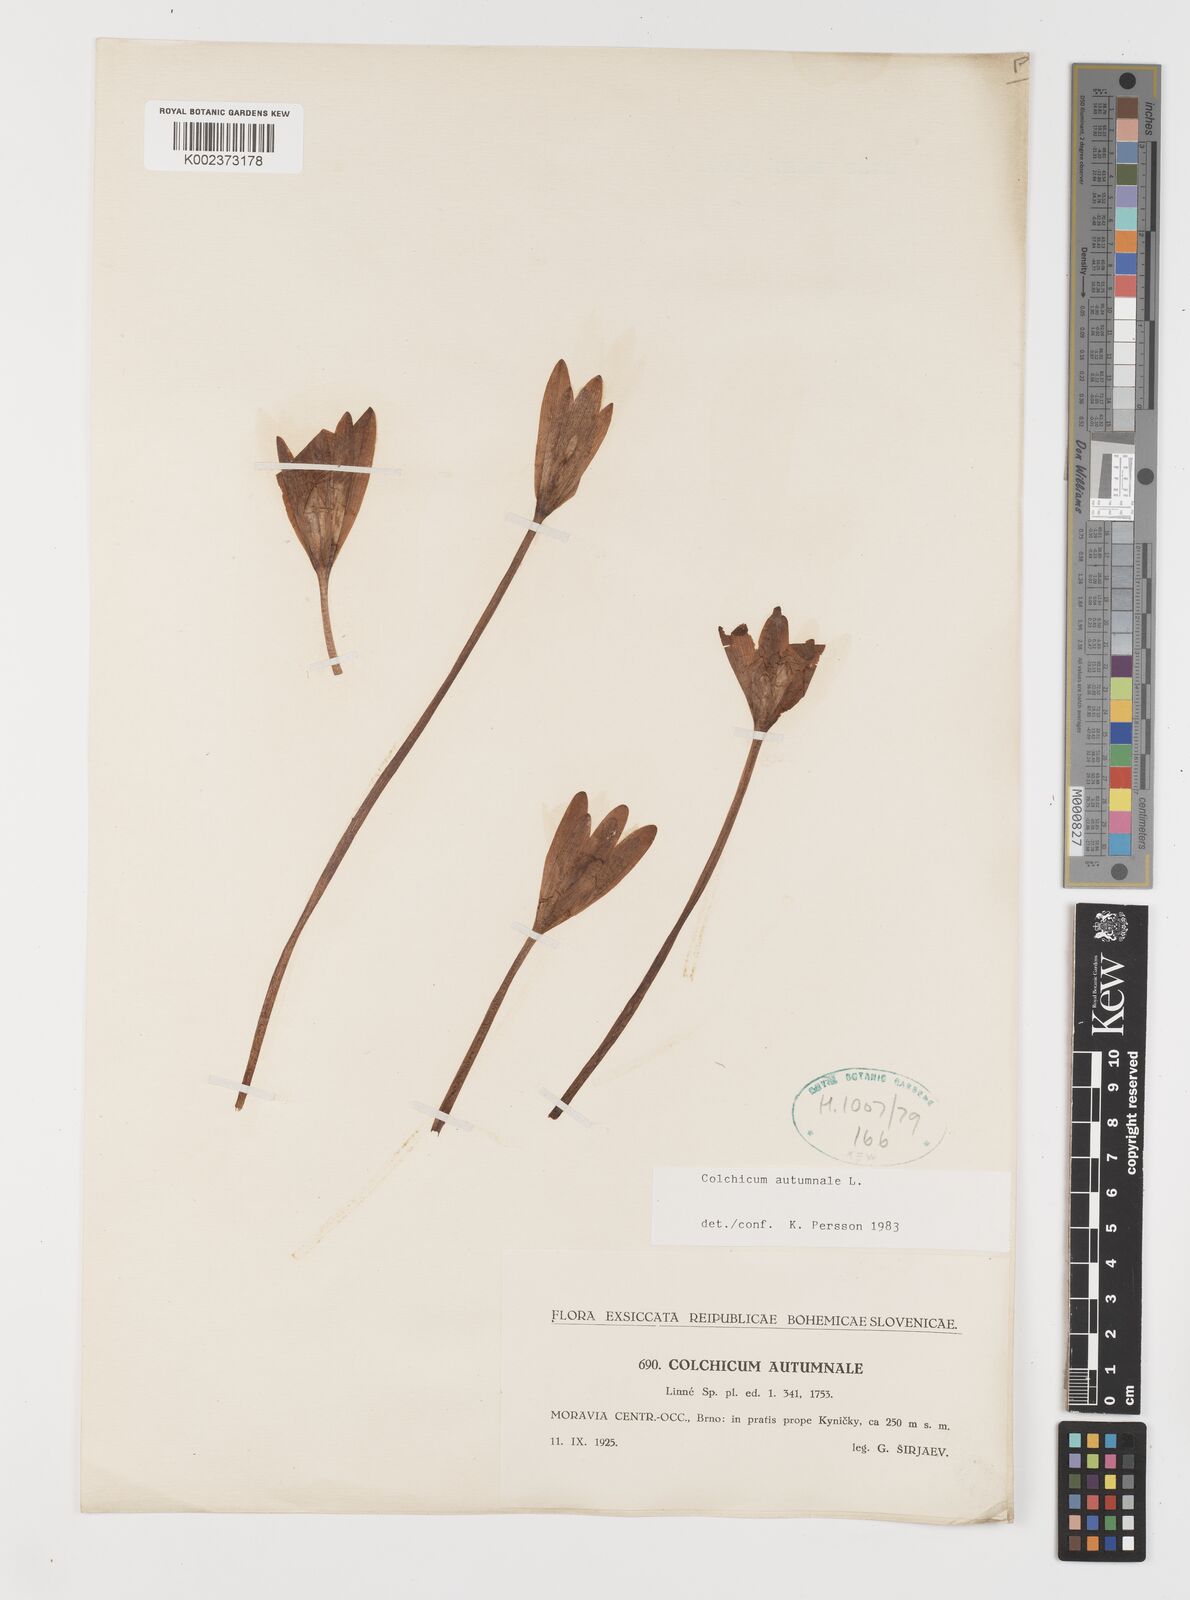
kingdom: Plantae
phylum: Tracheophyta
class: Liliopsida
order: Liliales
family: Colchicaceae
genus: Colchicum
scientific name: Colchicum autumnale
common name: Autumn crocus
